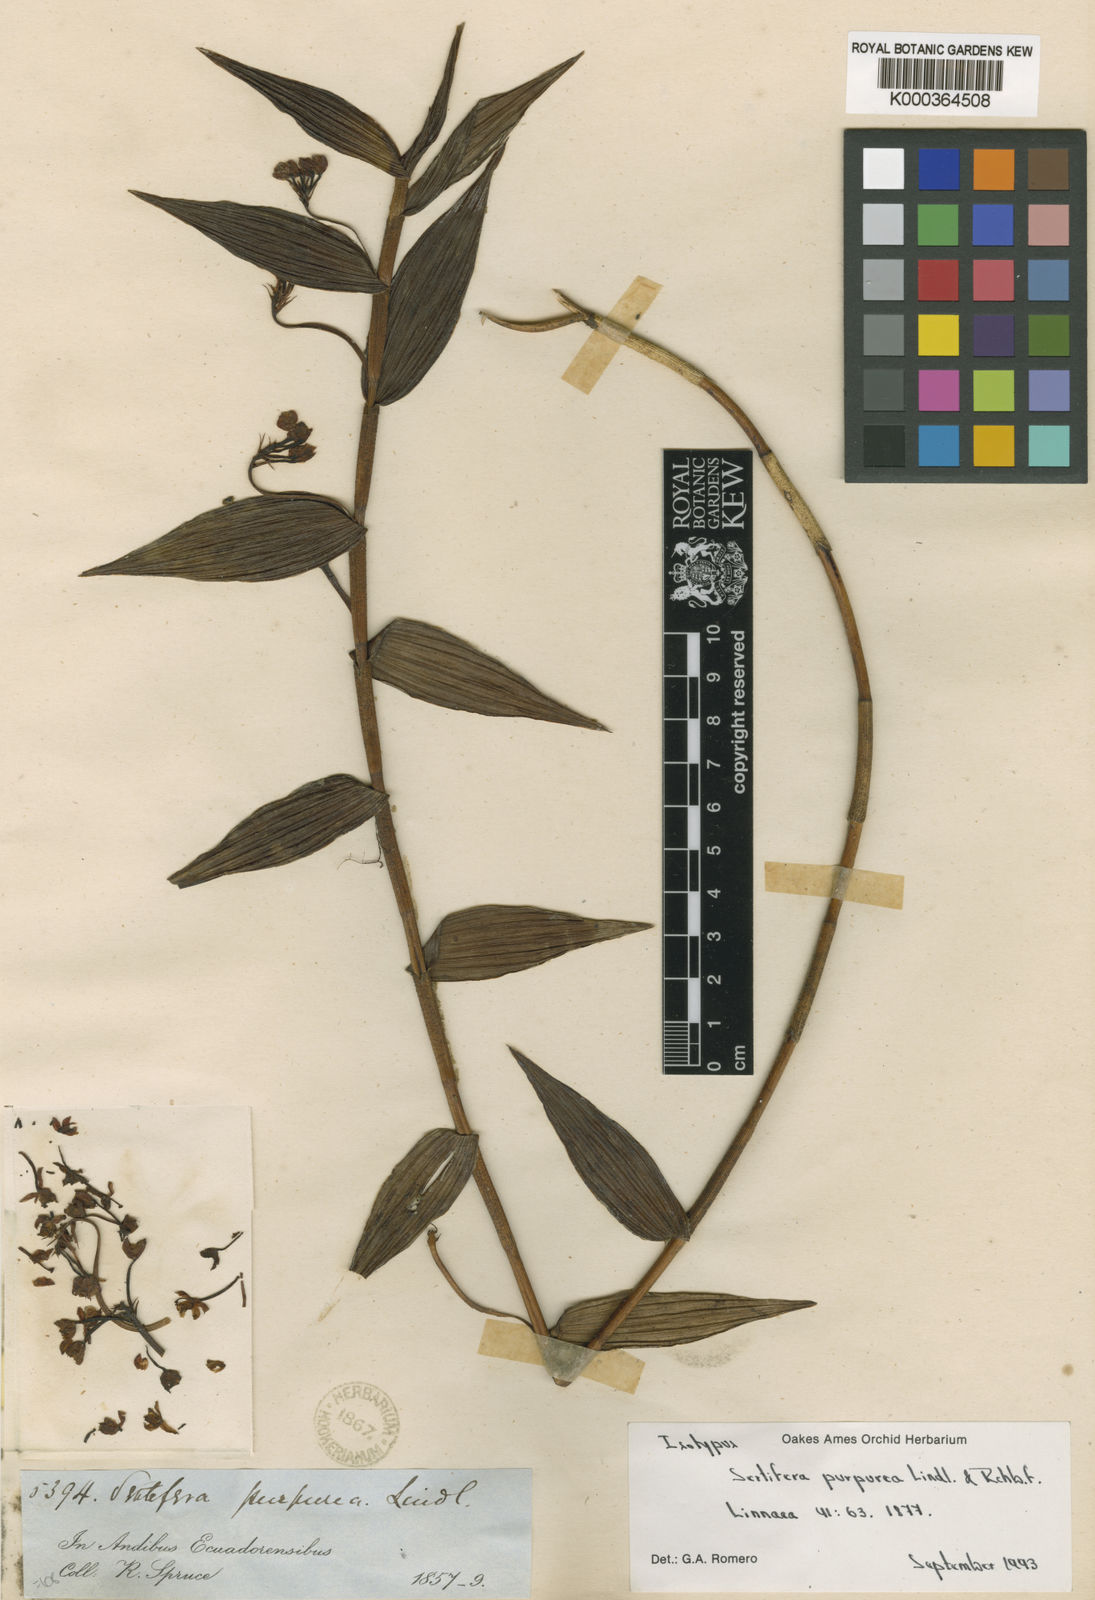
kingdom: Plantae
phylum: Tracheophyta
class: Liliopsida
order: Asparagales
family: Orchidaceae
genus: Elleanthus
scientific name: Elleanthus purpureus
